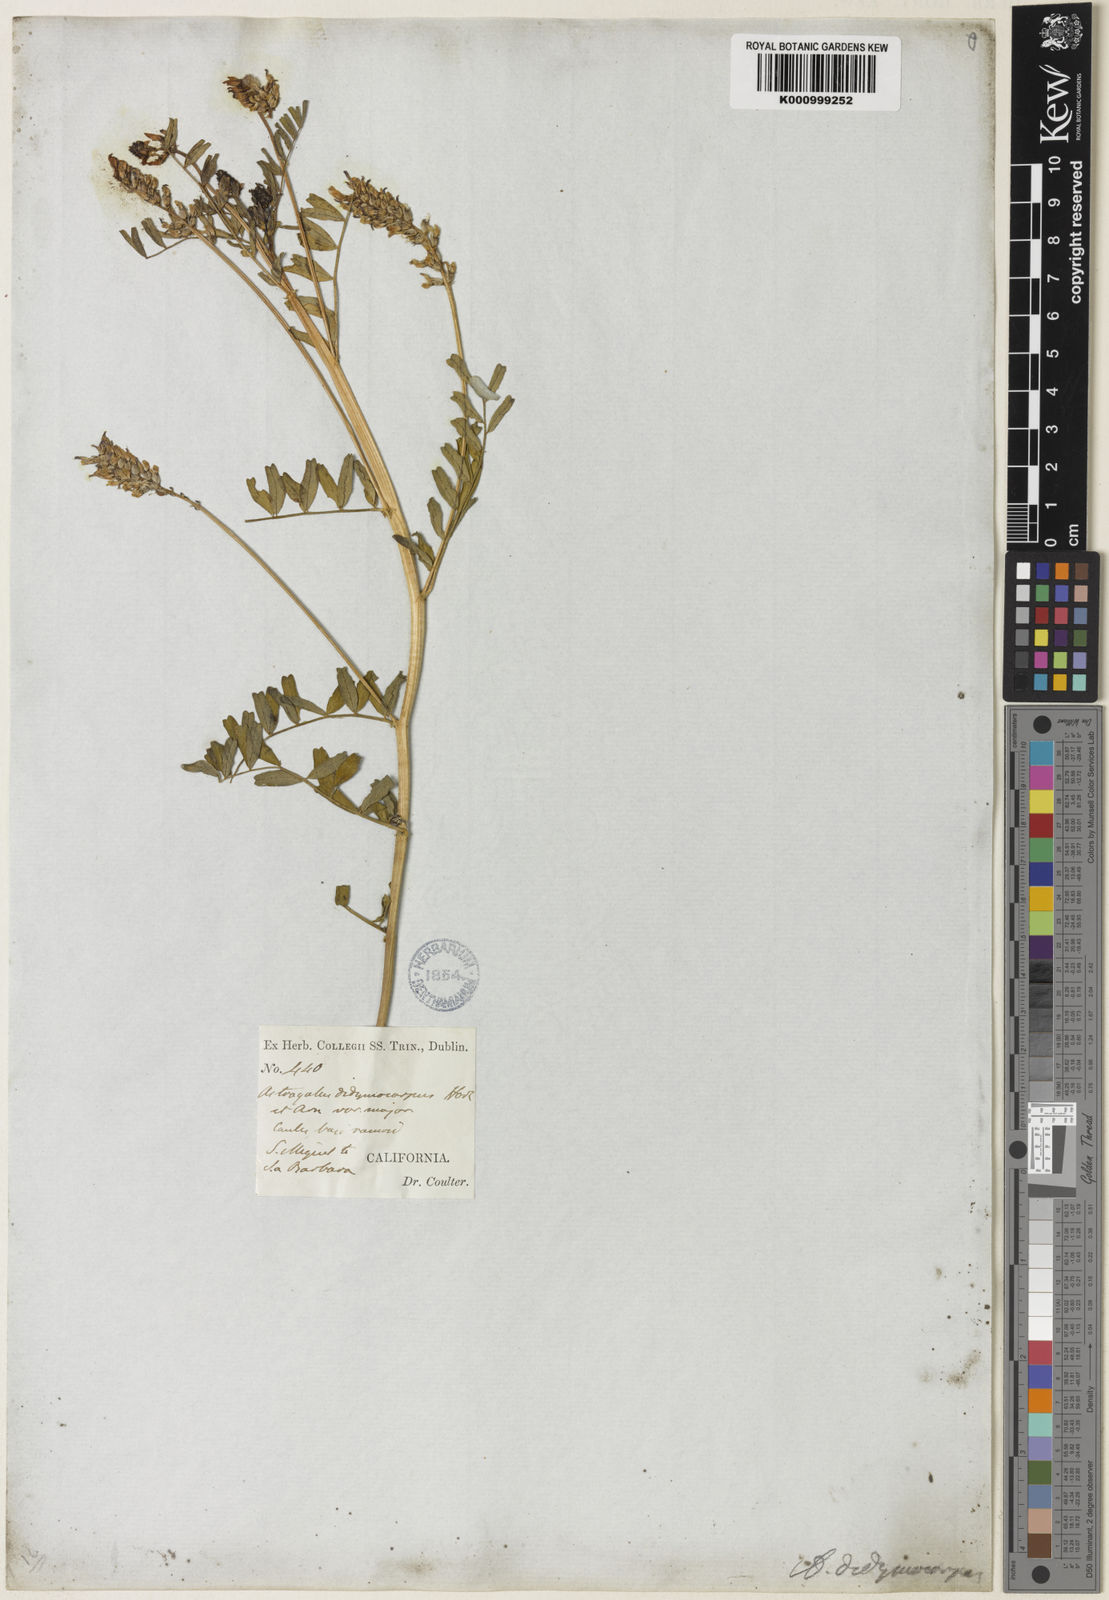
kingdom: Plantae
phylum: Tracheophyta
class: Magnoliopsida
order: Fabales
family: Fabaceae
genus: Astragalus
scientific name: Astragalus didymocarpus
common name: Dwarf white milkvetch
